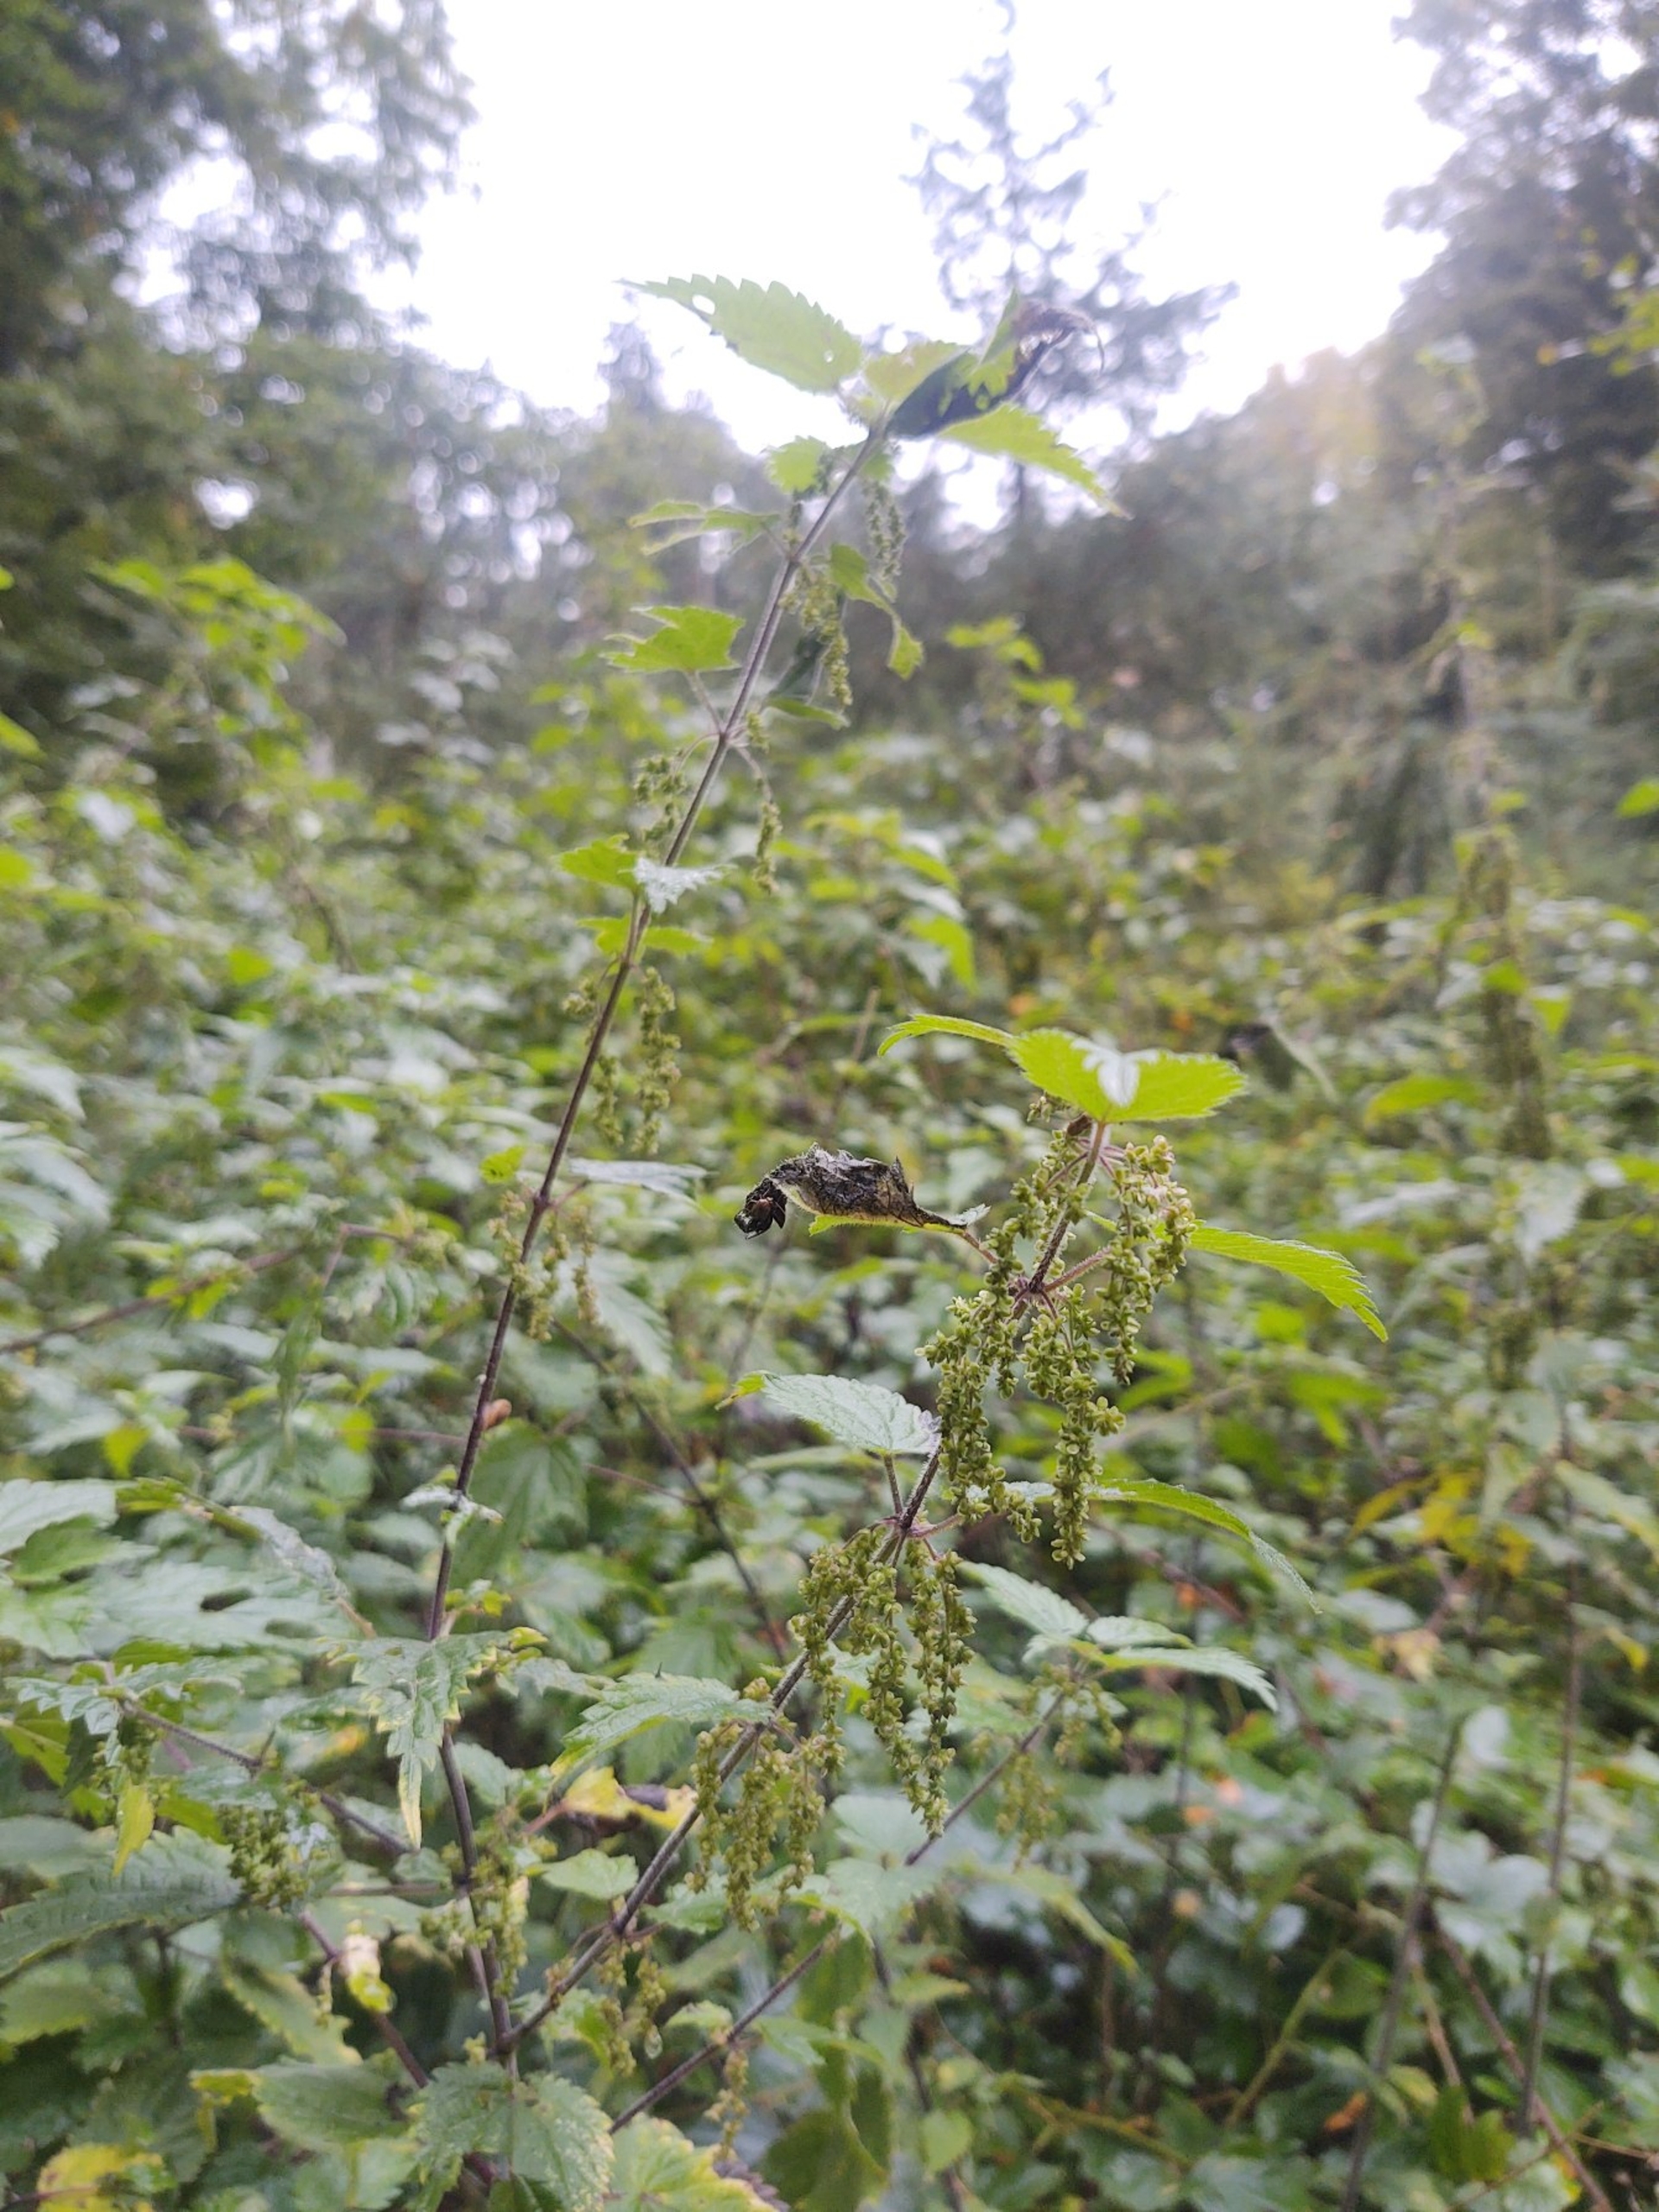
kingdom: Plantae
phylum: Tracheophyta
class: Magnoliopsida
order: Rosales
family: Urticaceae
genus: Urtica
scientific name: Urtica dioica
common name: Stor nælde
